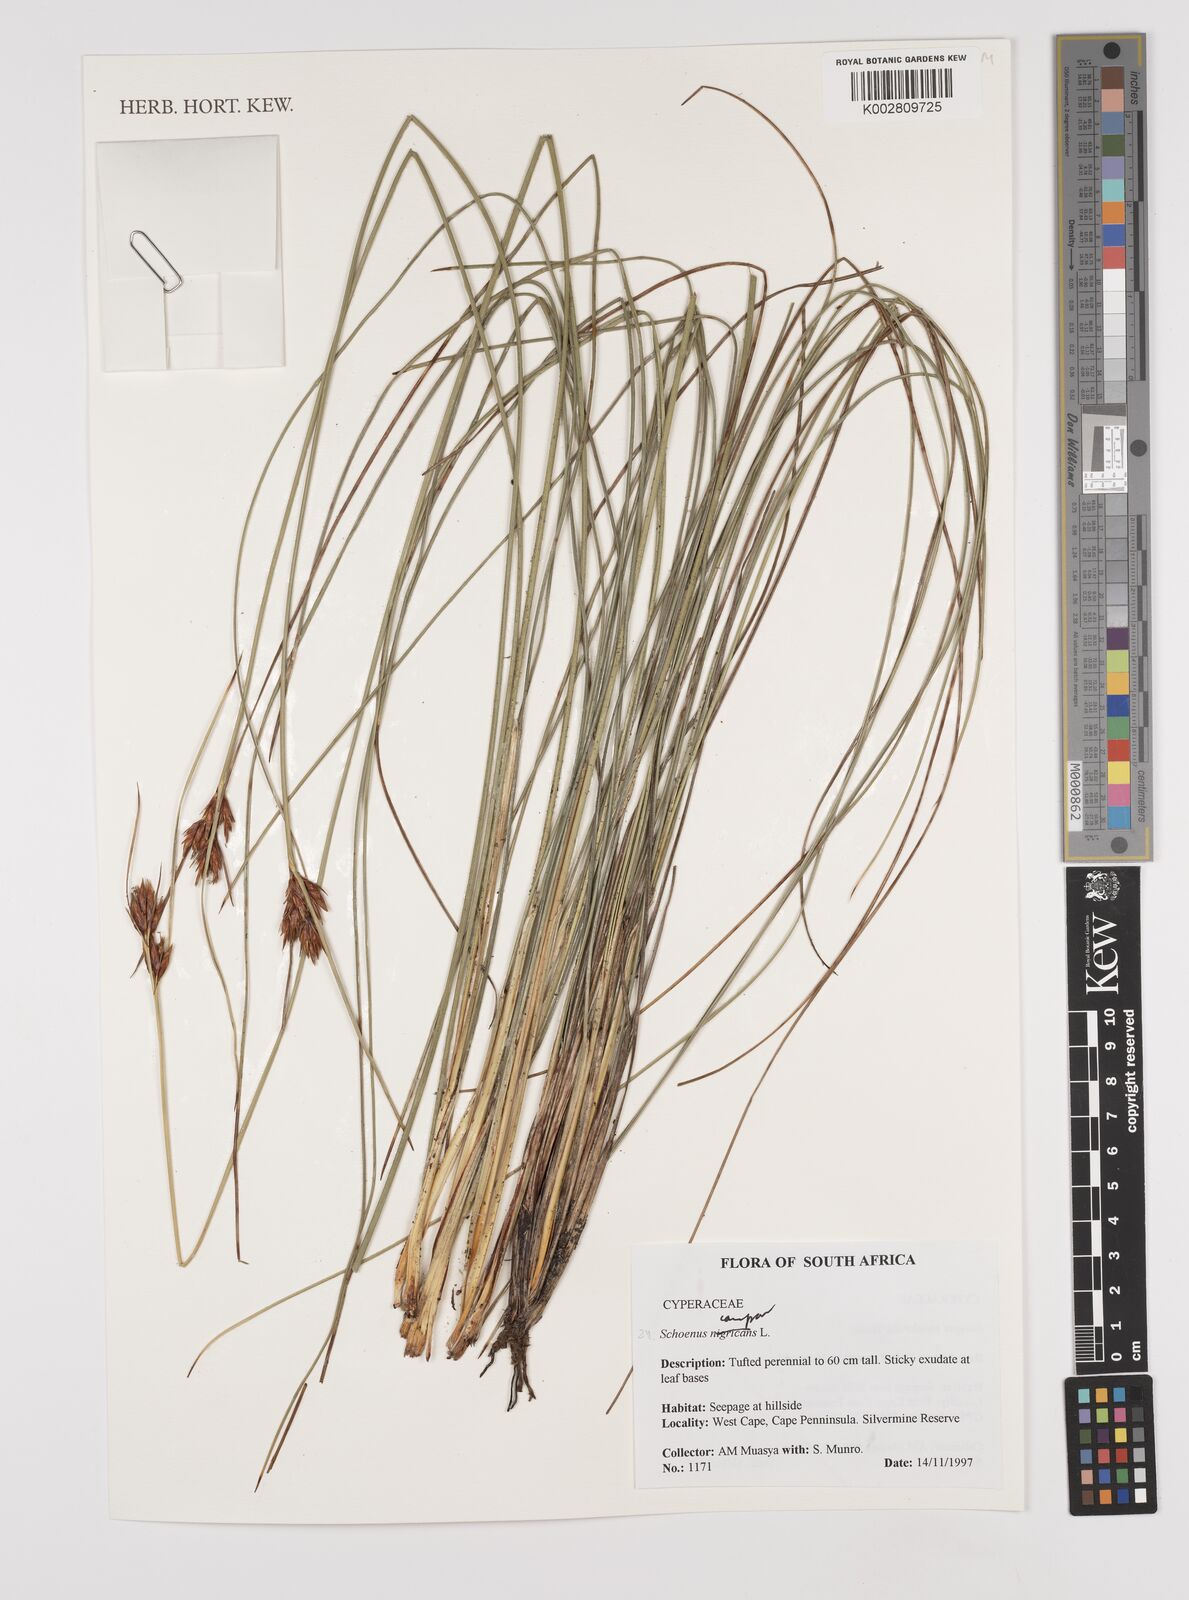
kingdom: Plantae
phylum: Tracheophyta
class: Liliopsida
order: Poales
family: Cyperaceae
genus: Schoenus
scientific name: Schoenus compar
